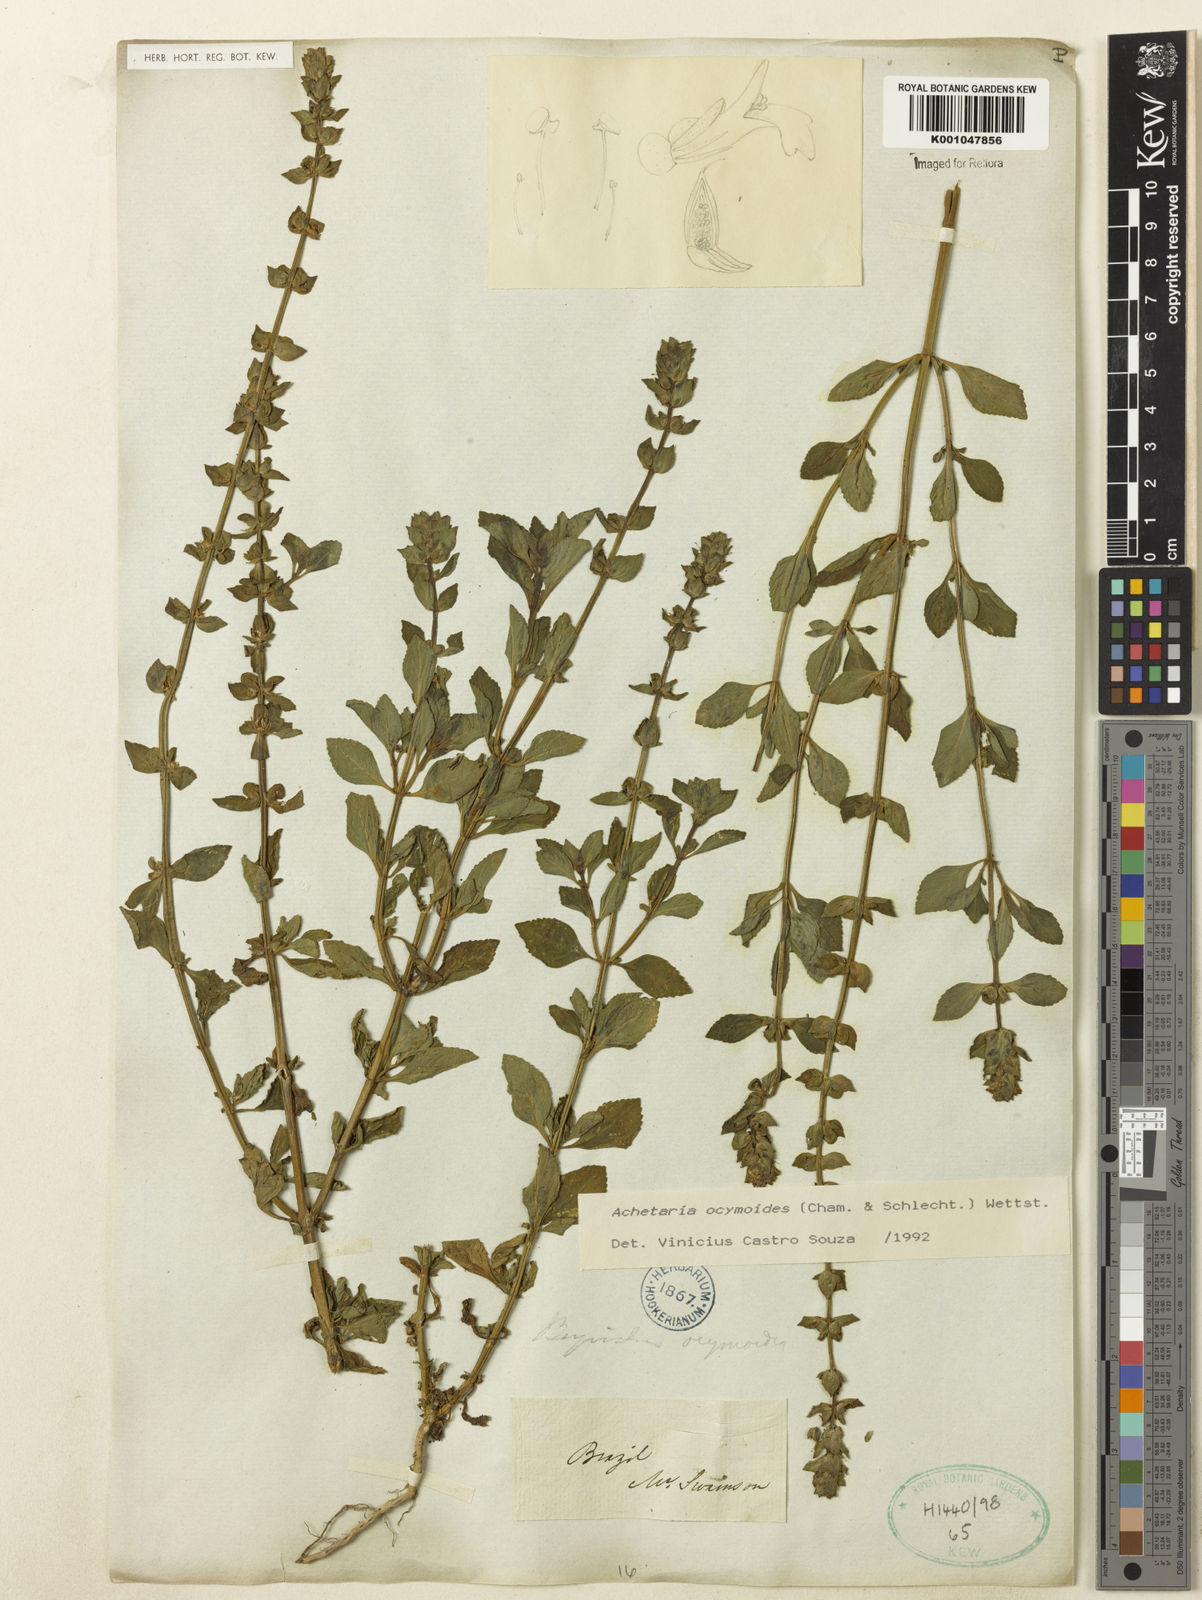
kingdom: Plantae
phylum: Tracheophyta
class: Magnoliopsida
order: Lamiales
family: Plantaginaceae
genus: Matourea
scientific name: Matourea ocymoides
